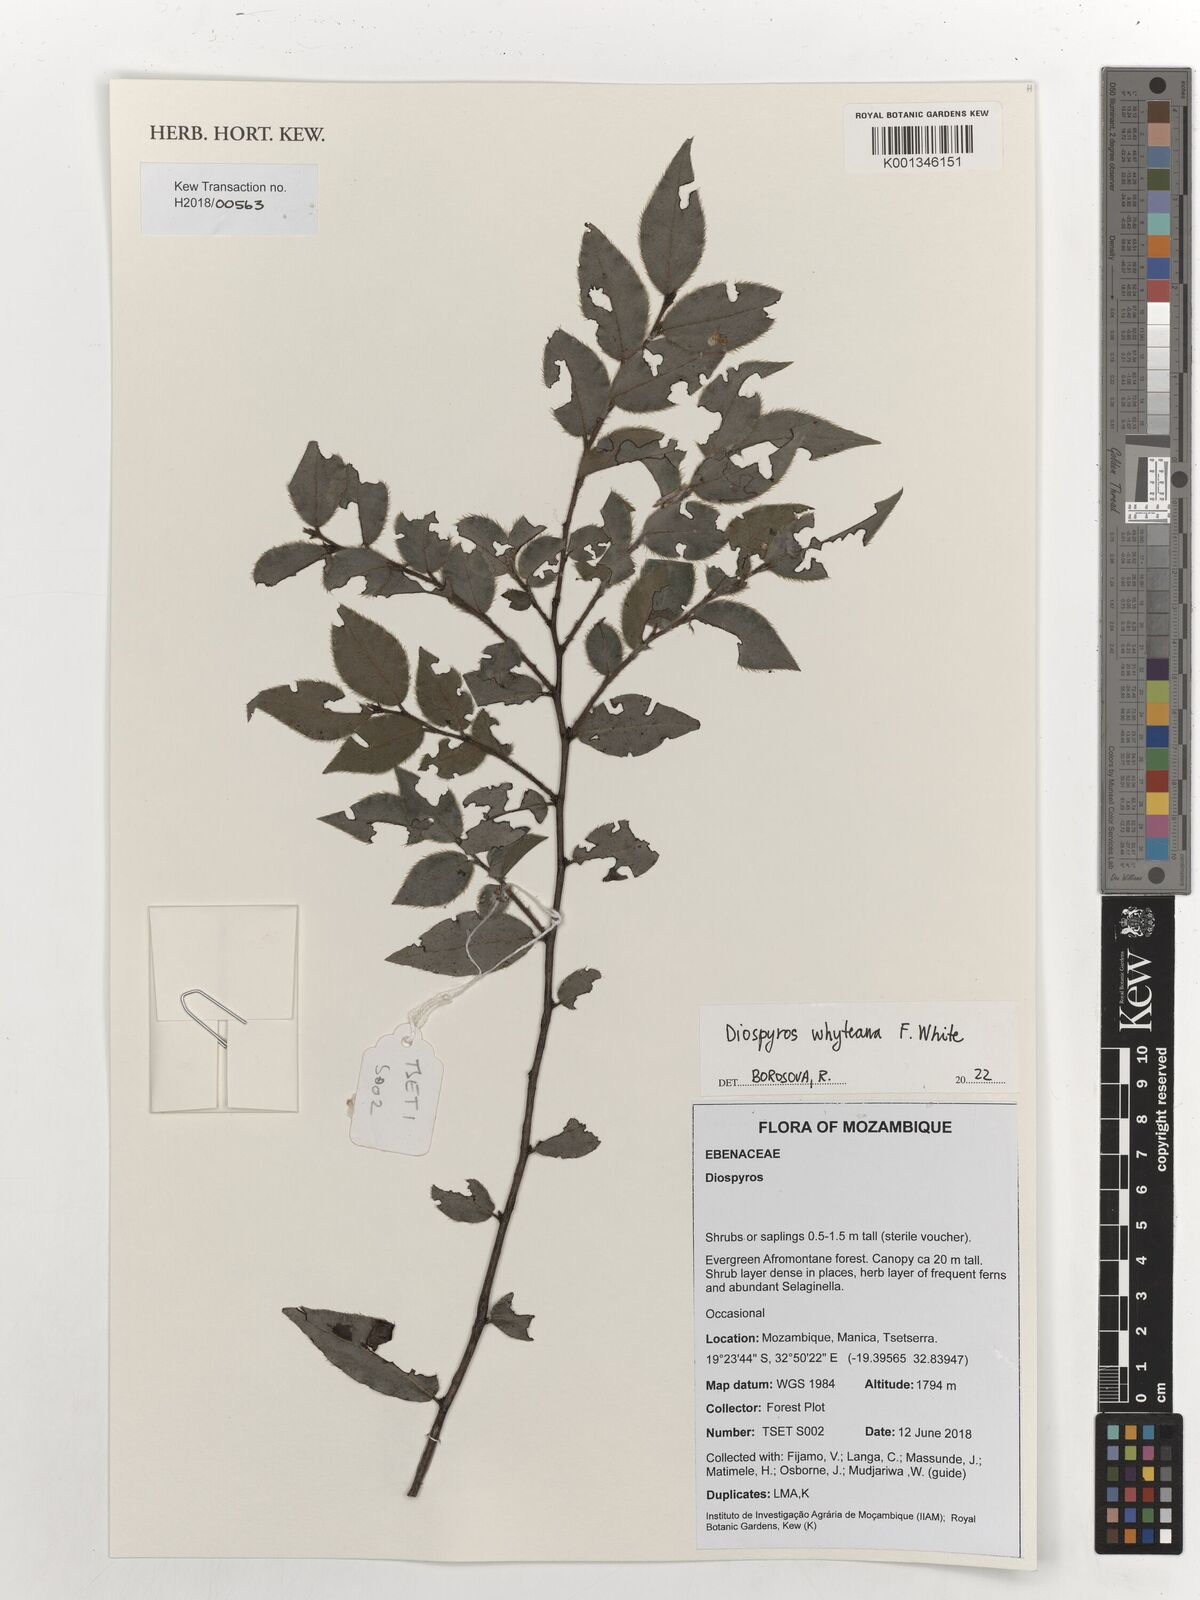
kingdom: Plantae
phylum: Tracheophyta
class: Magnoliopsida
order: Ericales
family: Ebenaceae
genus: Diospyros
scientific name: Diospyros whyteana
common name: Bladder-nut
